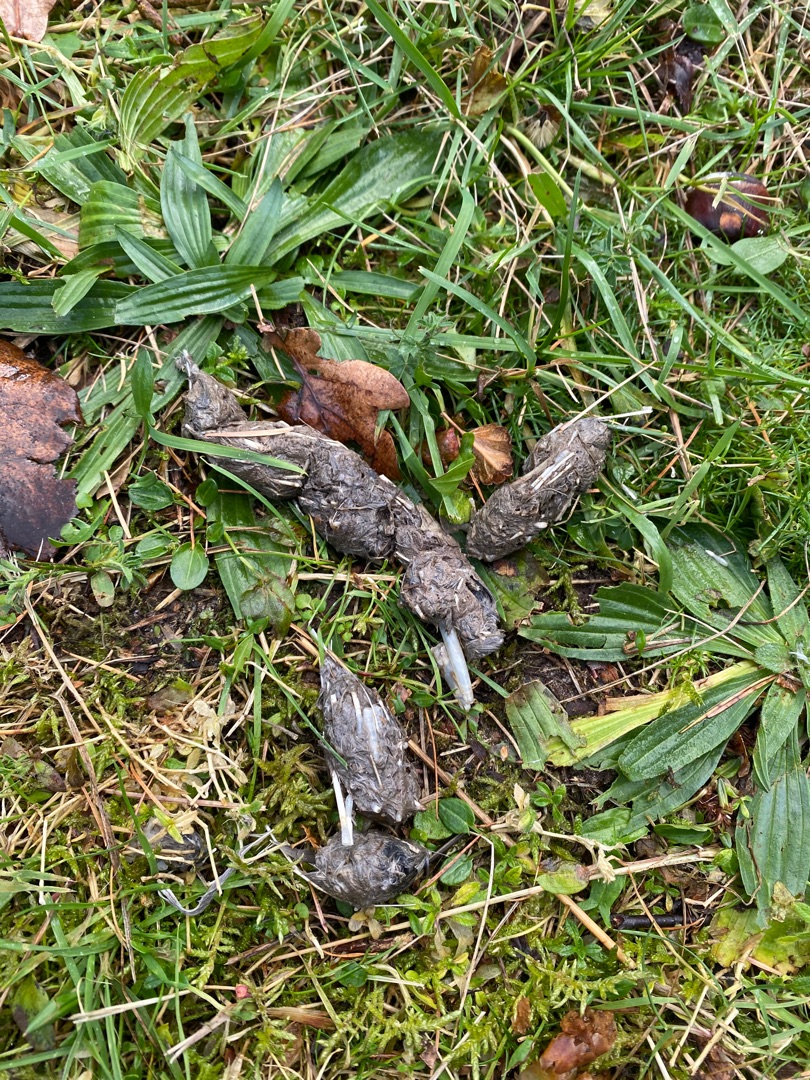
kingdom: Animalia
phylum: Chordata
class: Mammalia
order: Carnivora
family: Canidae
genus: Vulpes
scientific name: Vulpes vulpes
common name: Ræv
